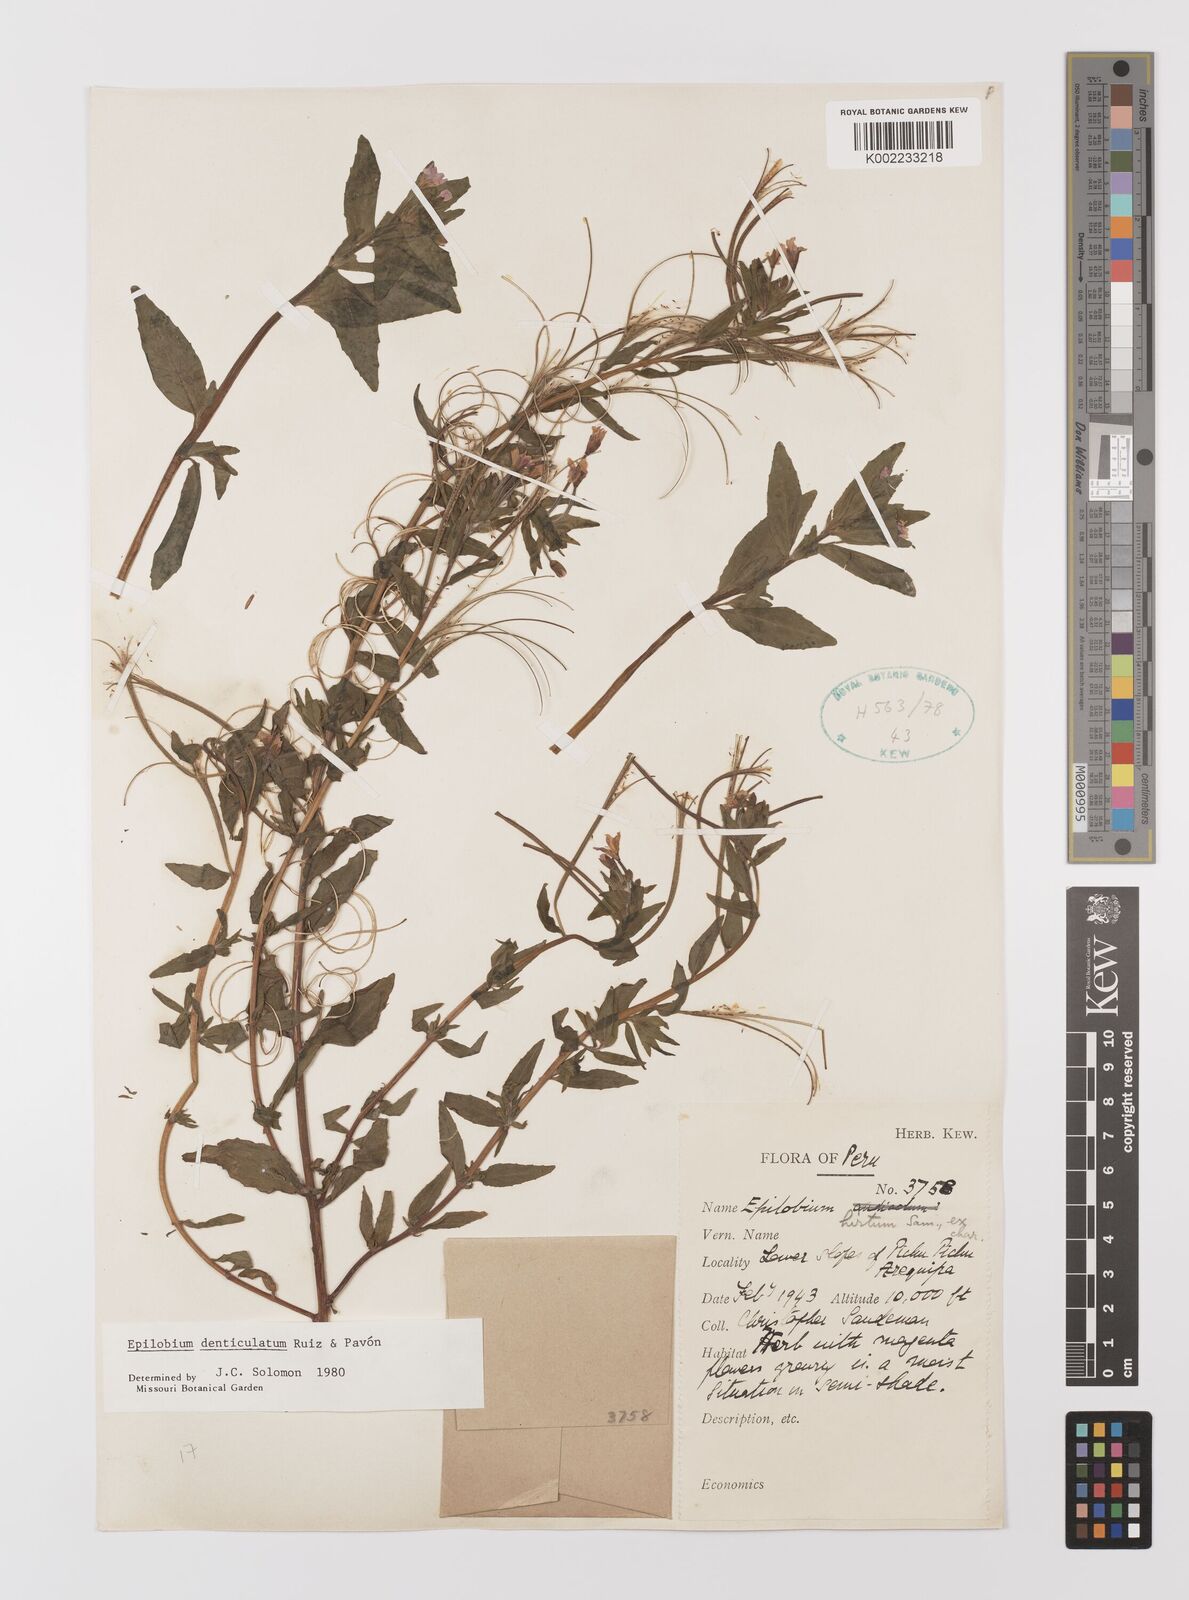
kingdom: Plantae
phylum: Tracheophyta
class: Magnoliopsida
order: Myrtales
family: Onagraceae
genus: Epilobium
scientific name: Epilobium denticulatum
